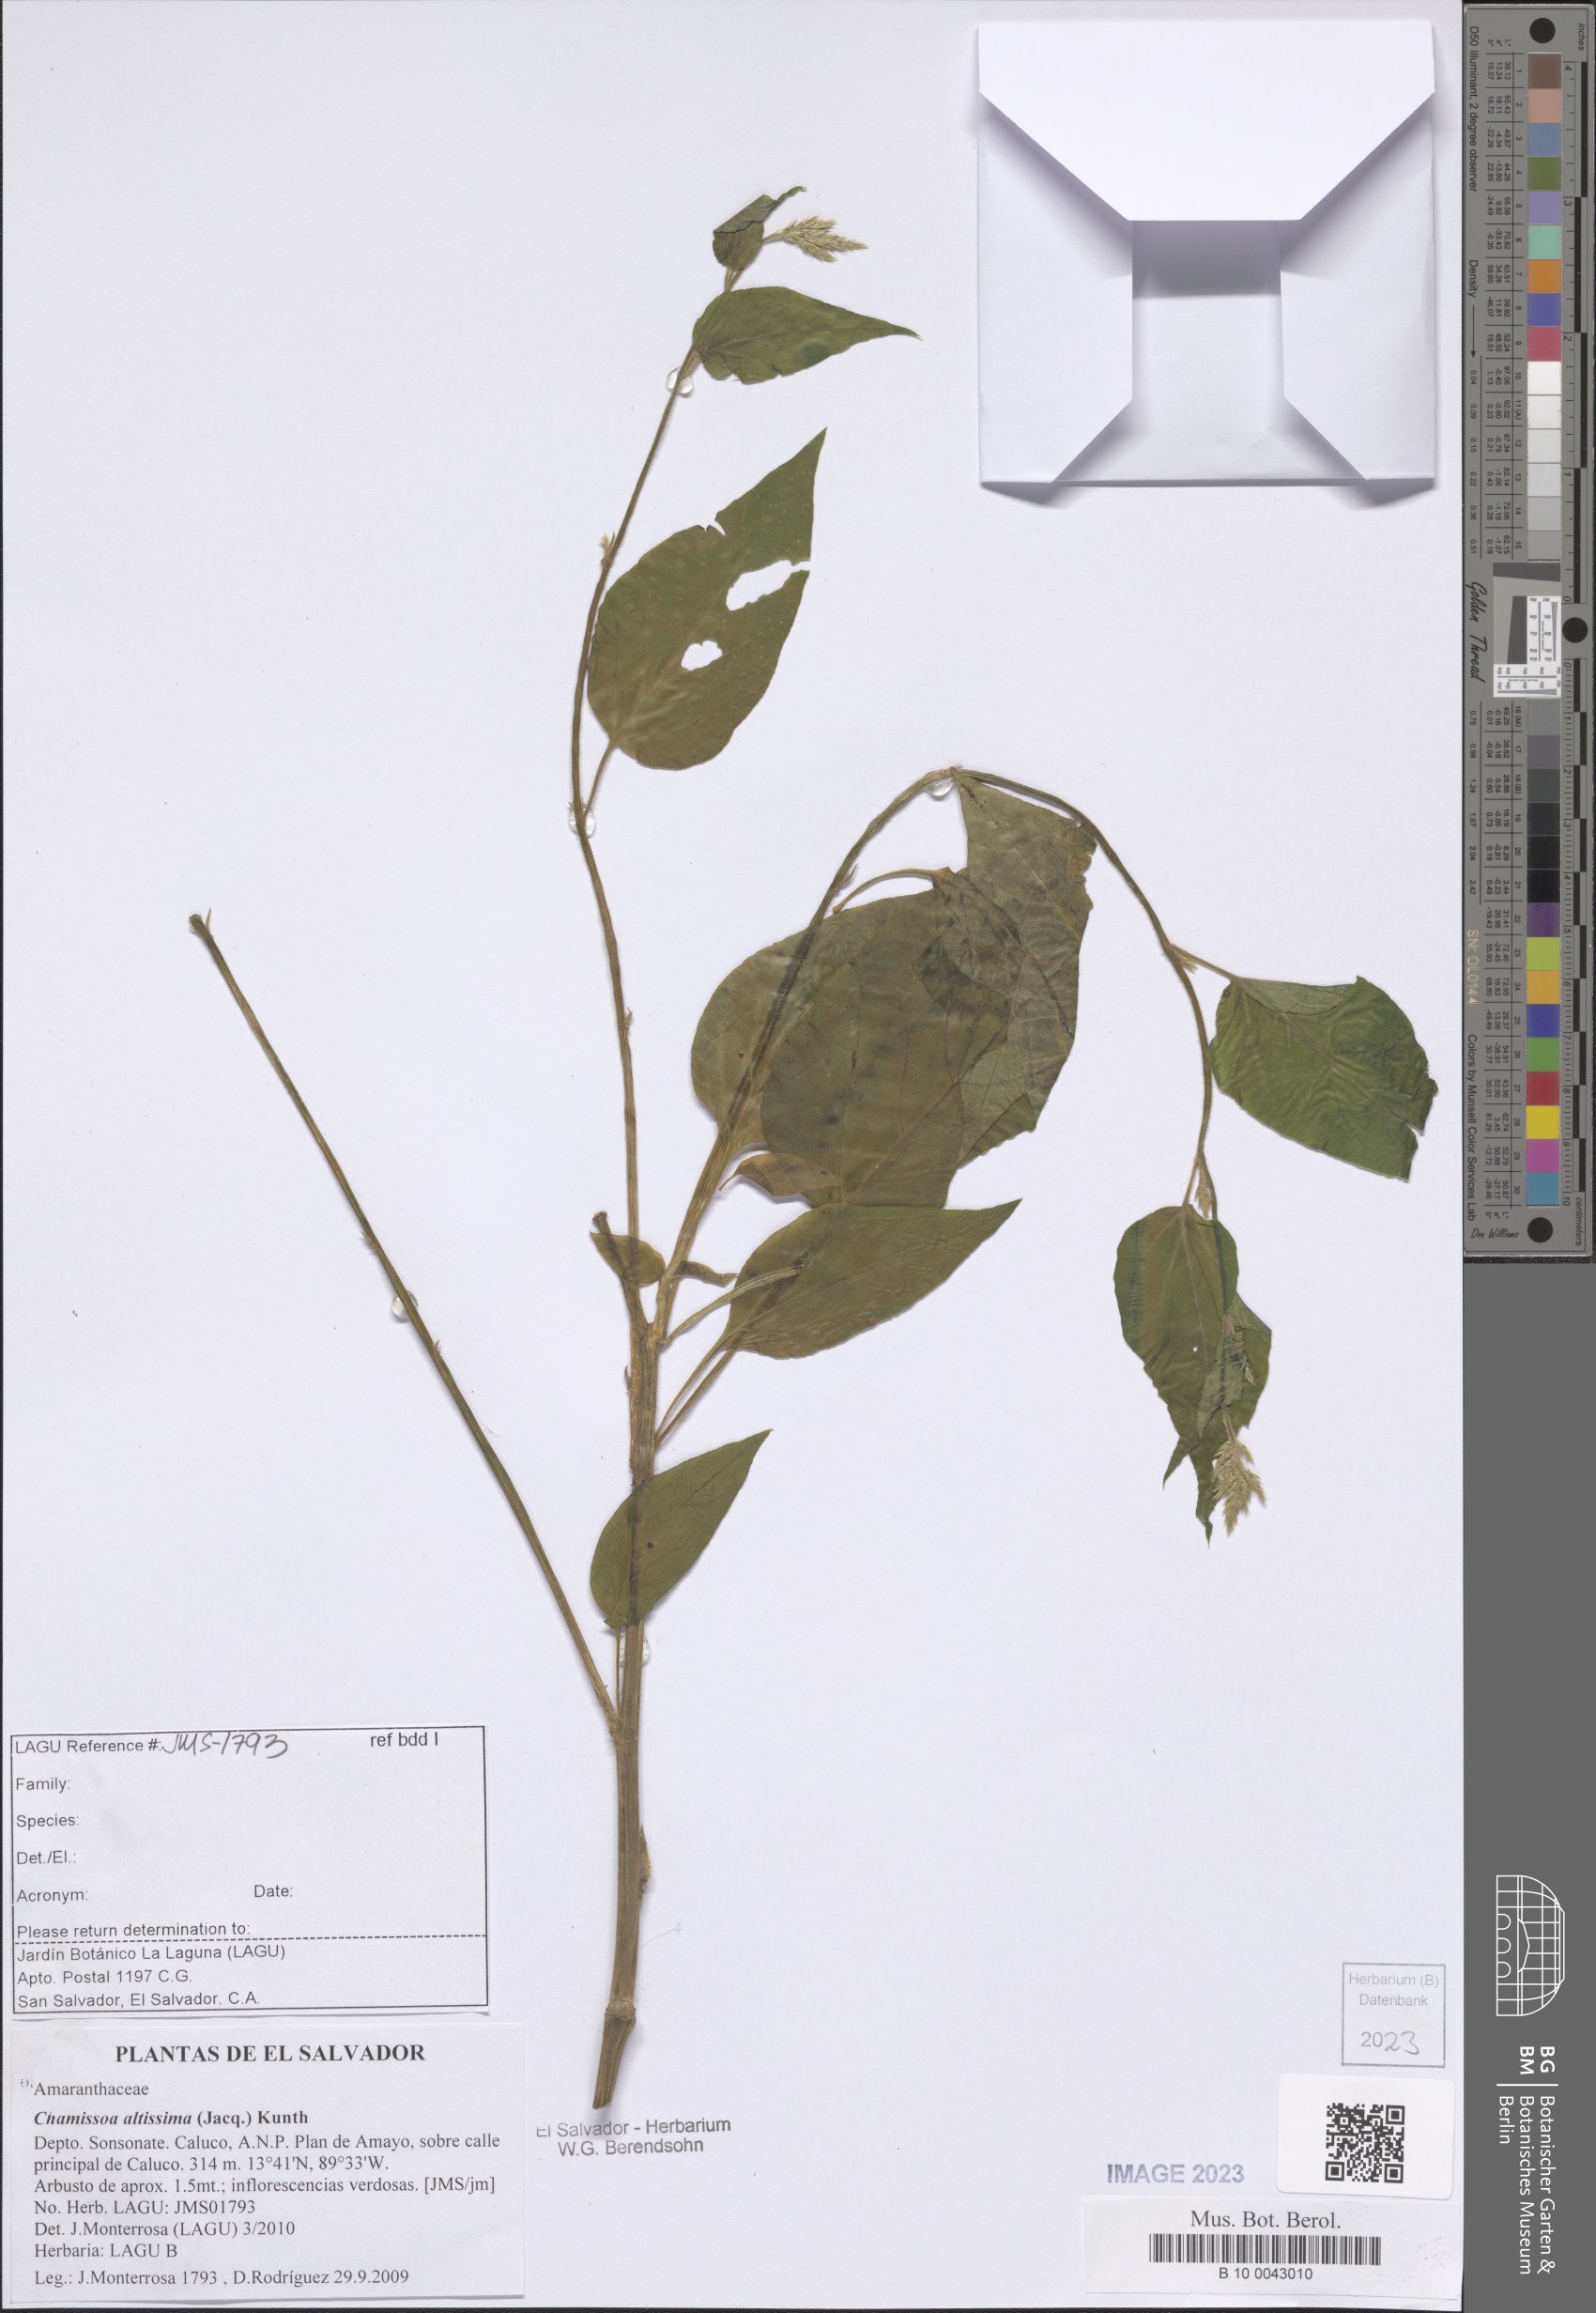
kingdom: Plantae
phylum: Tracheophyta
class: Magnoliopsida
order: Caryophyllales
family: Amaranthaceae
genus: Chamissoa
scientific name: Chamissoa altissima
